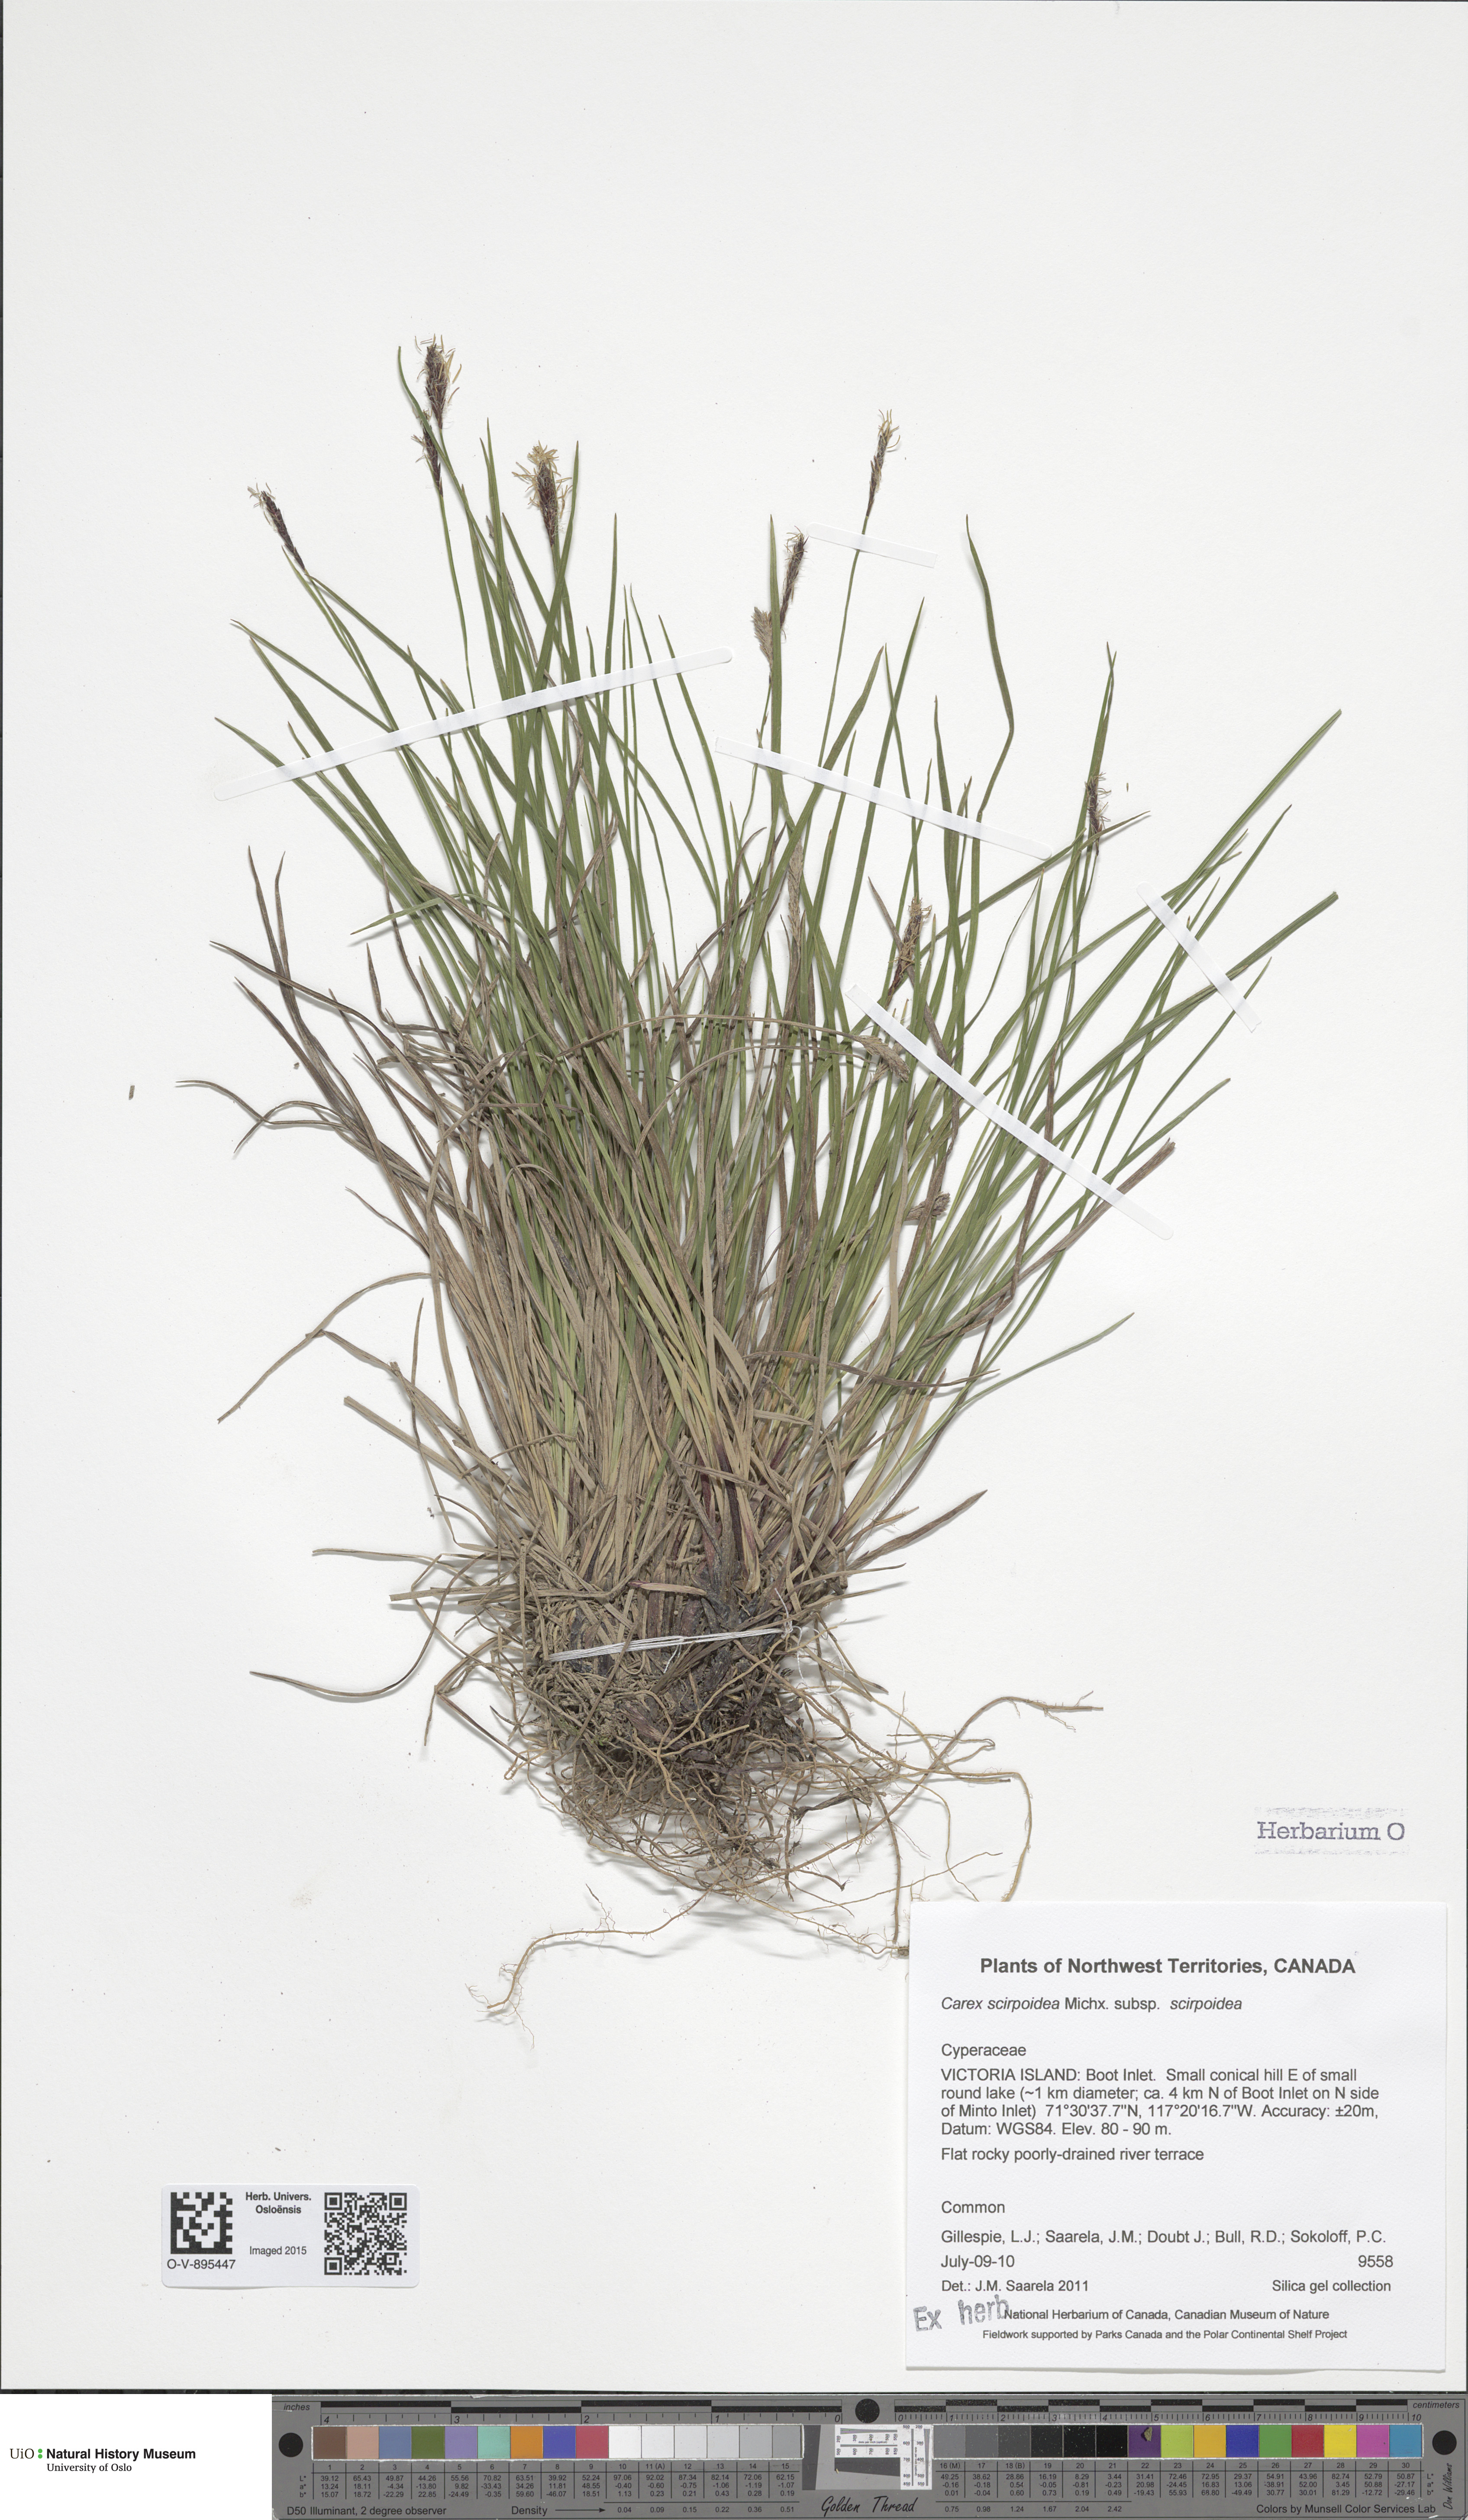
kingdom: Plantae
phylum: Tracheophyta
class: Liliopsida
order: Poales
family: Cyperaceae
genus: Carex
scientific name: Carex scirpoidea
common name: Canada single-spike sedge
